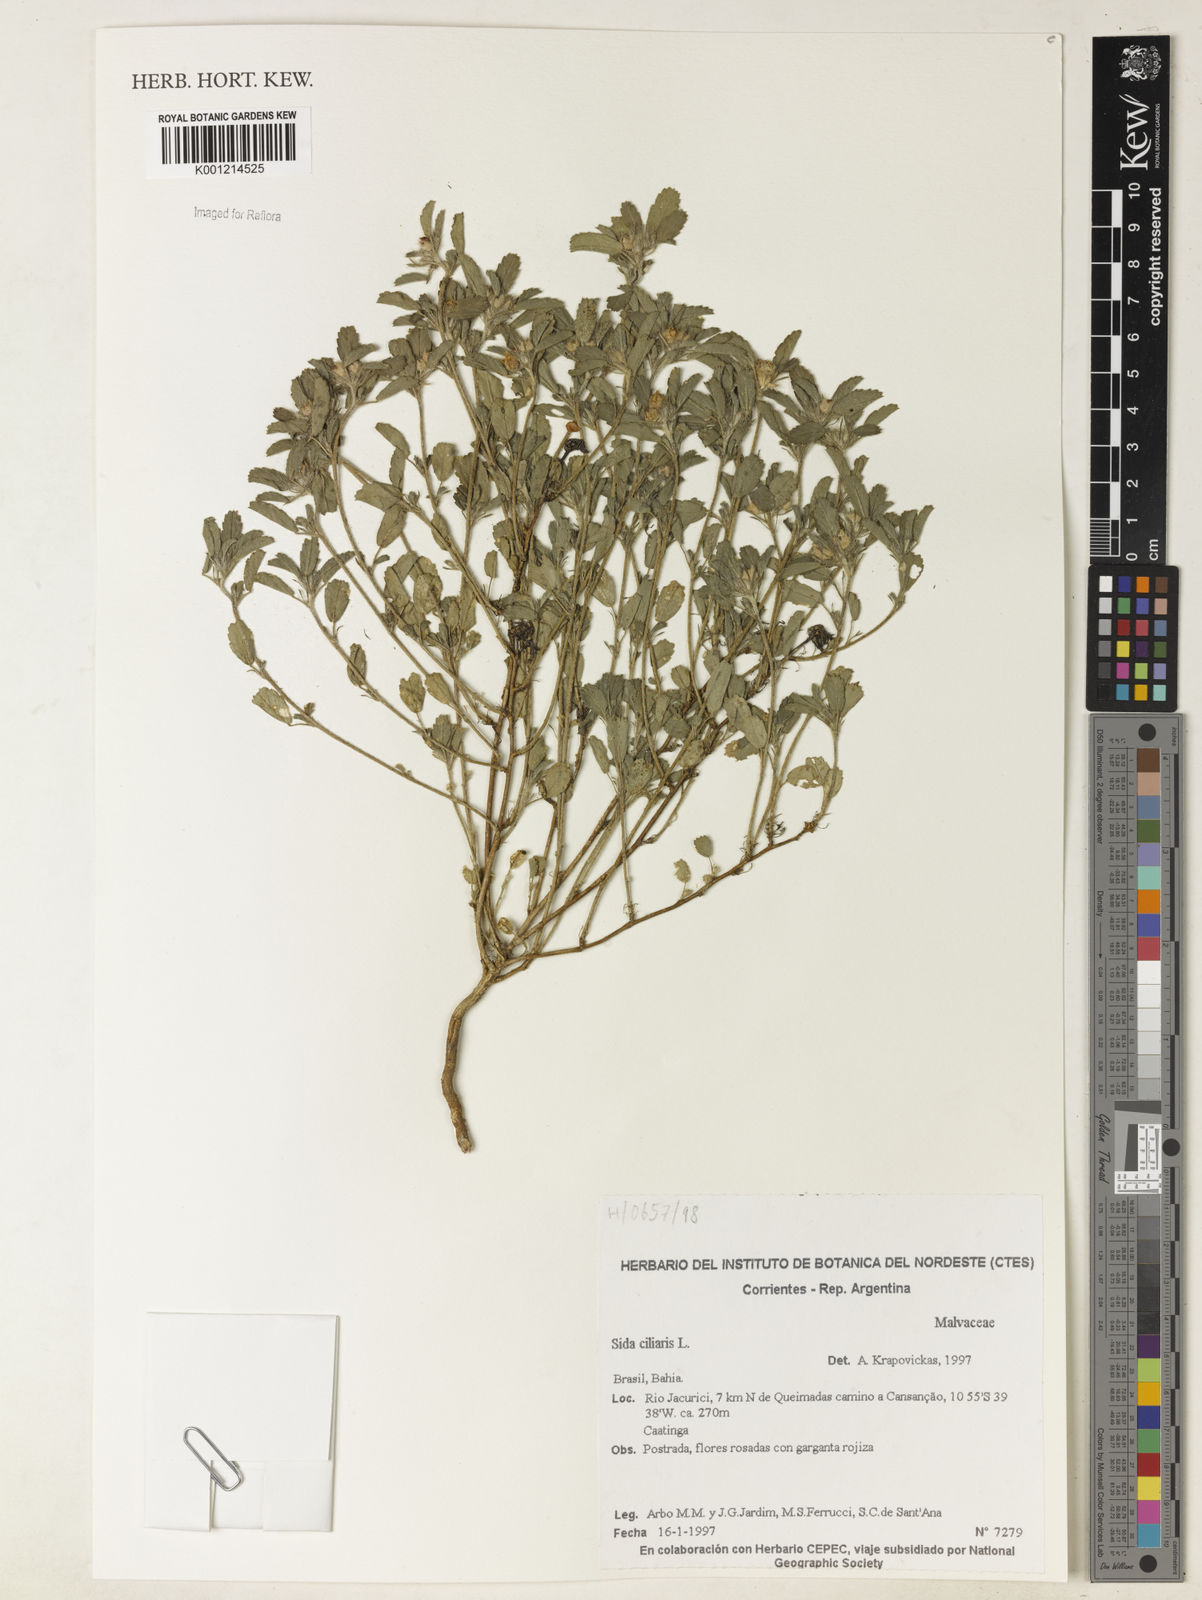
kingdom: Plantae
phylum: Tracheophyta
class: Magnoliopsida
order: Malvales
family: Malvaceae
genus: Sida
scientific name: Sida ciliaris
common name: Bracted fanpetals
